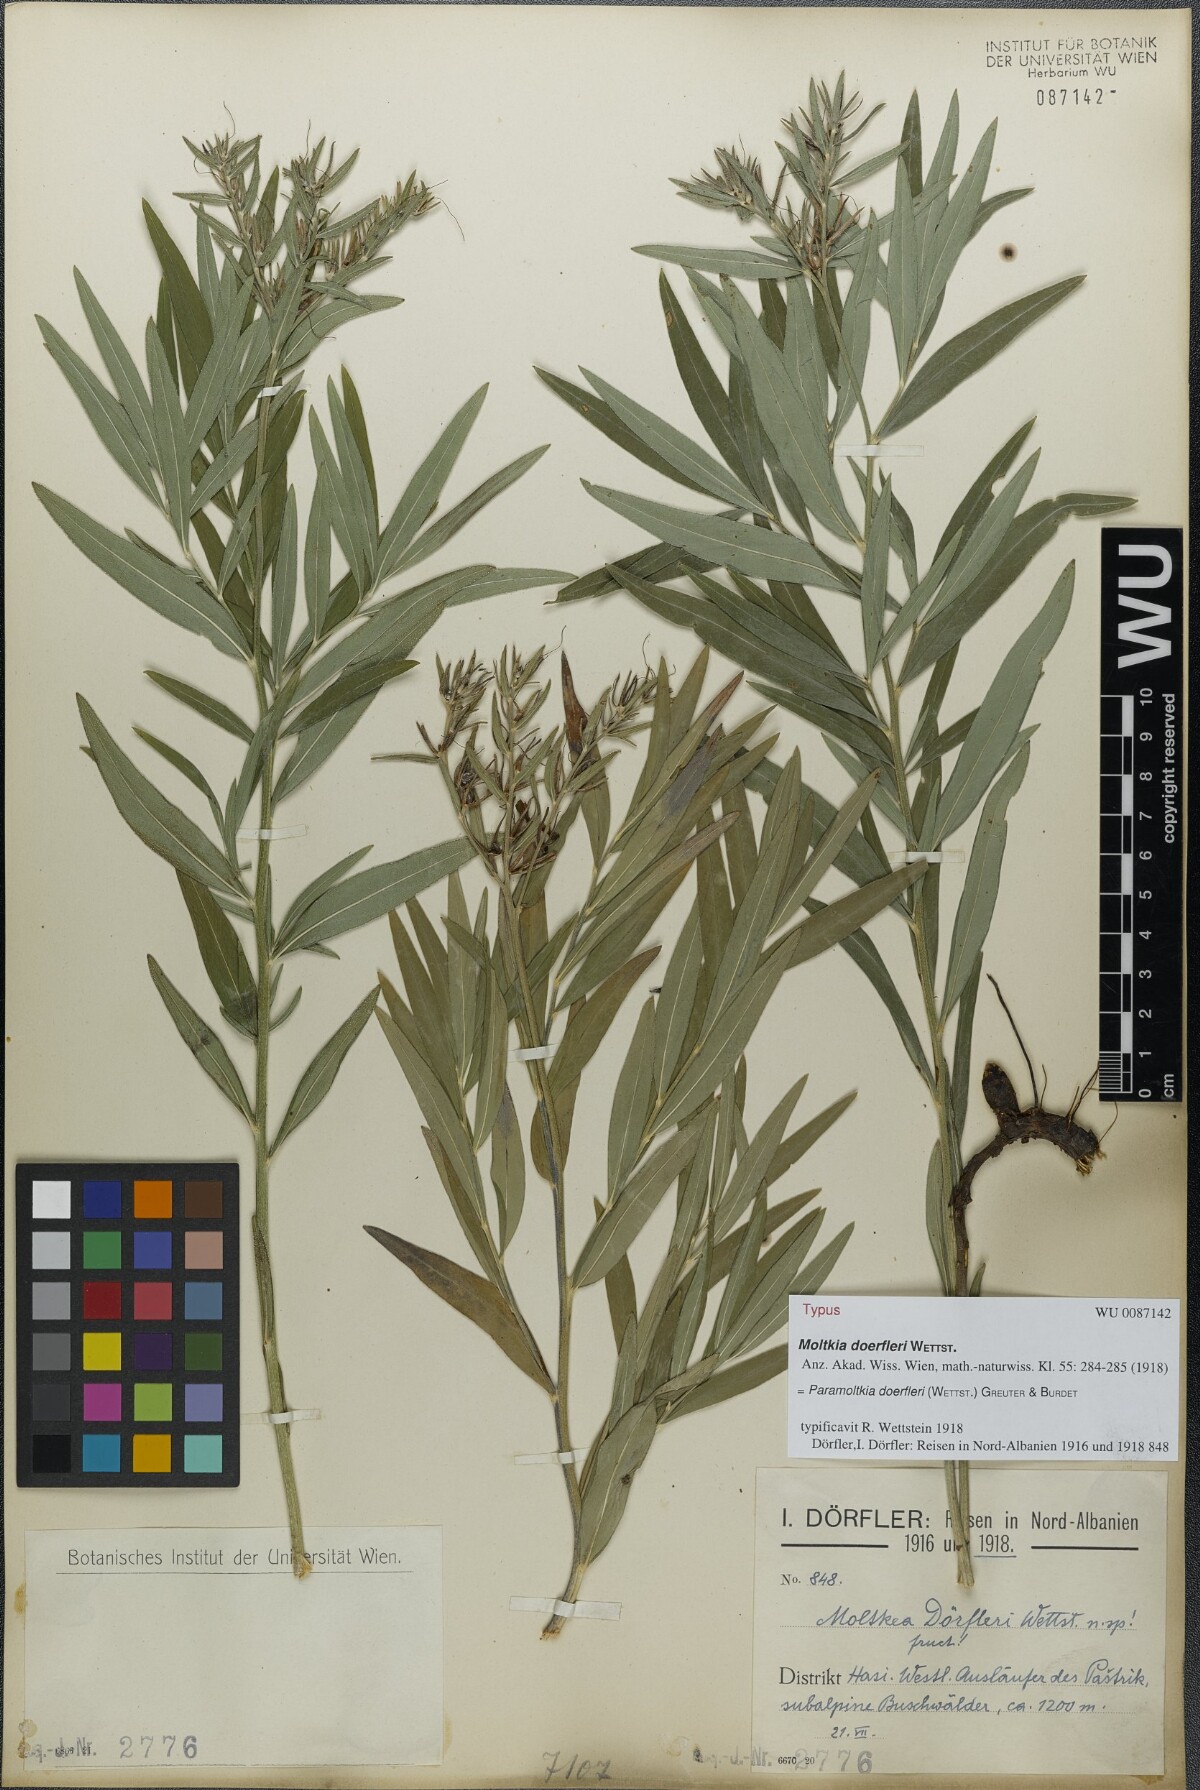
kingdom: Plantae
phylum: Tracheophyta
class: Magnoliopsida
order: Boraginales
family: Boraginaceae
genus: Paramoltkia
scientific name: Paramoltkia doerfleri
